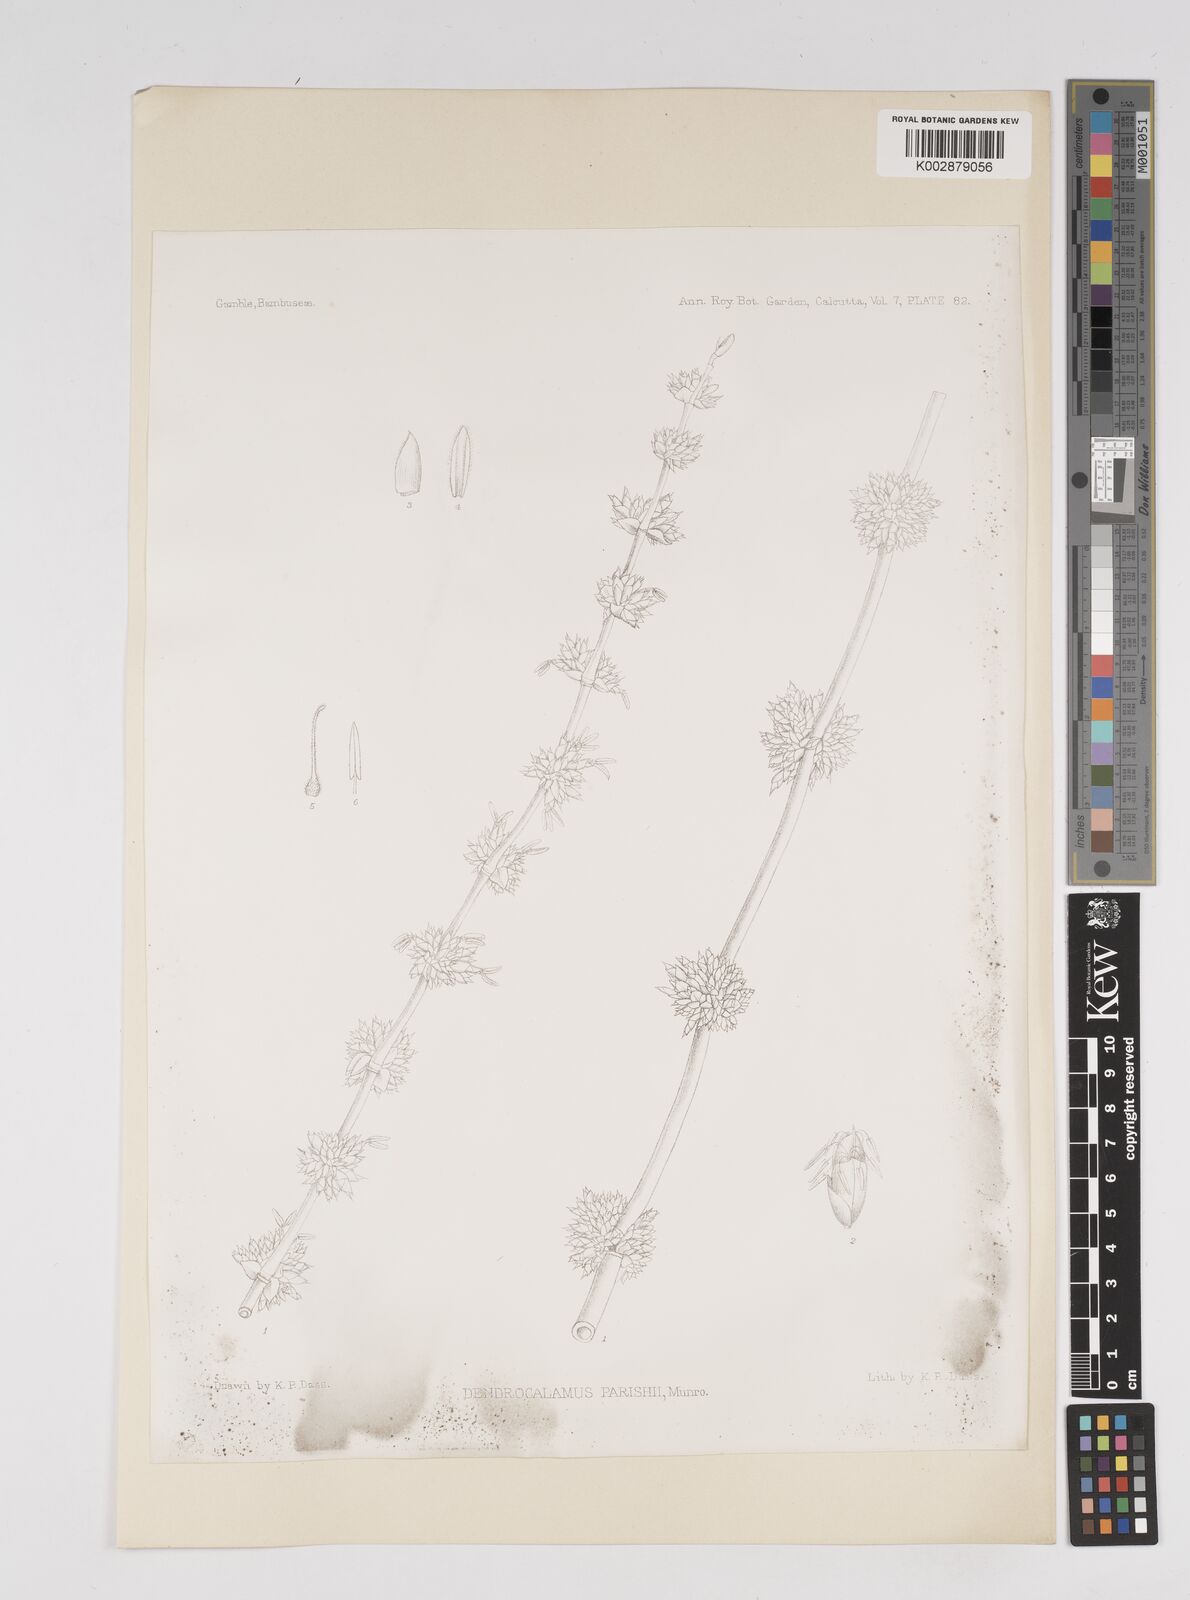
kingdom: Plantae
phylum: Tracheophyta
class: Liliopsida
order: Poales
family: Poaceae
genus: Dendrocalamus
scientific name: Dendrocalamus parishii
